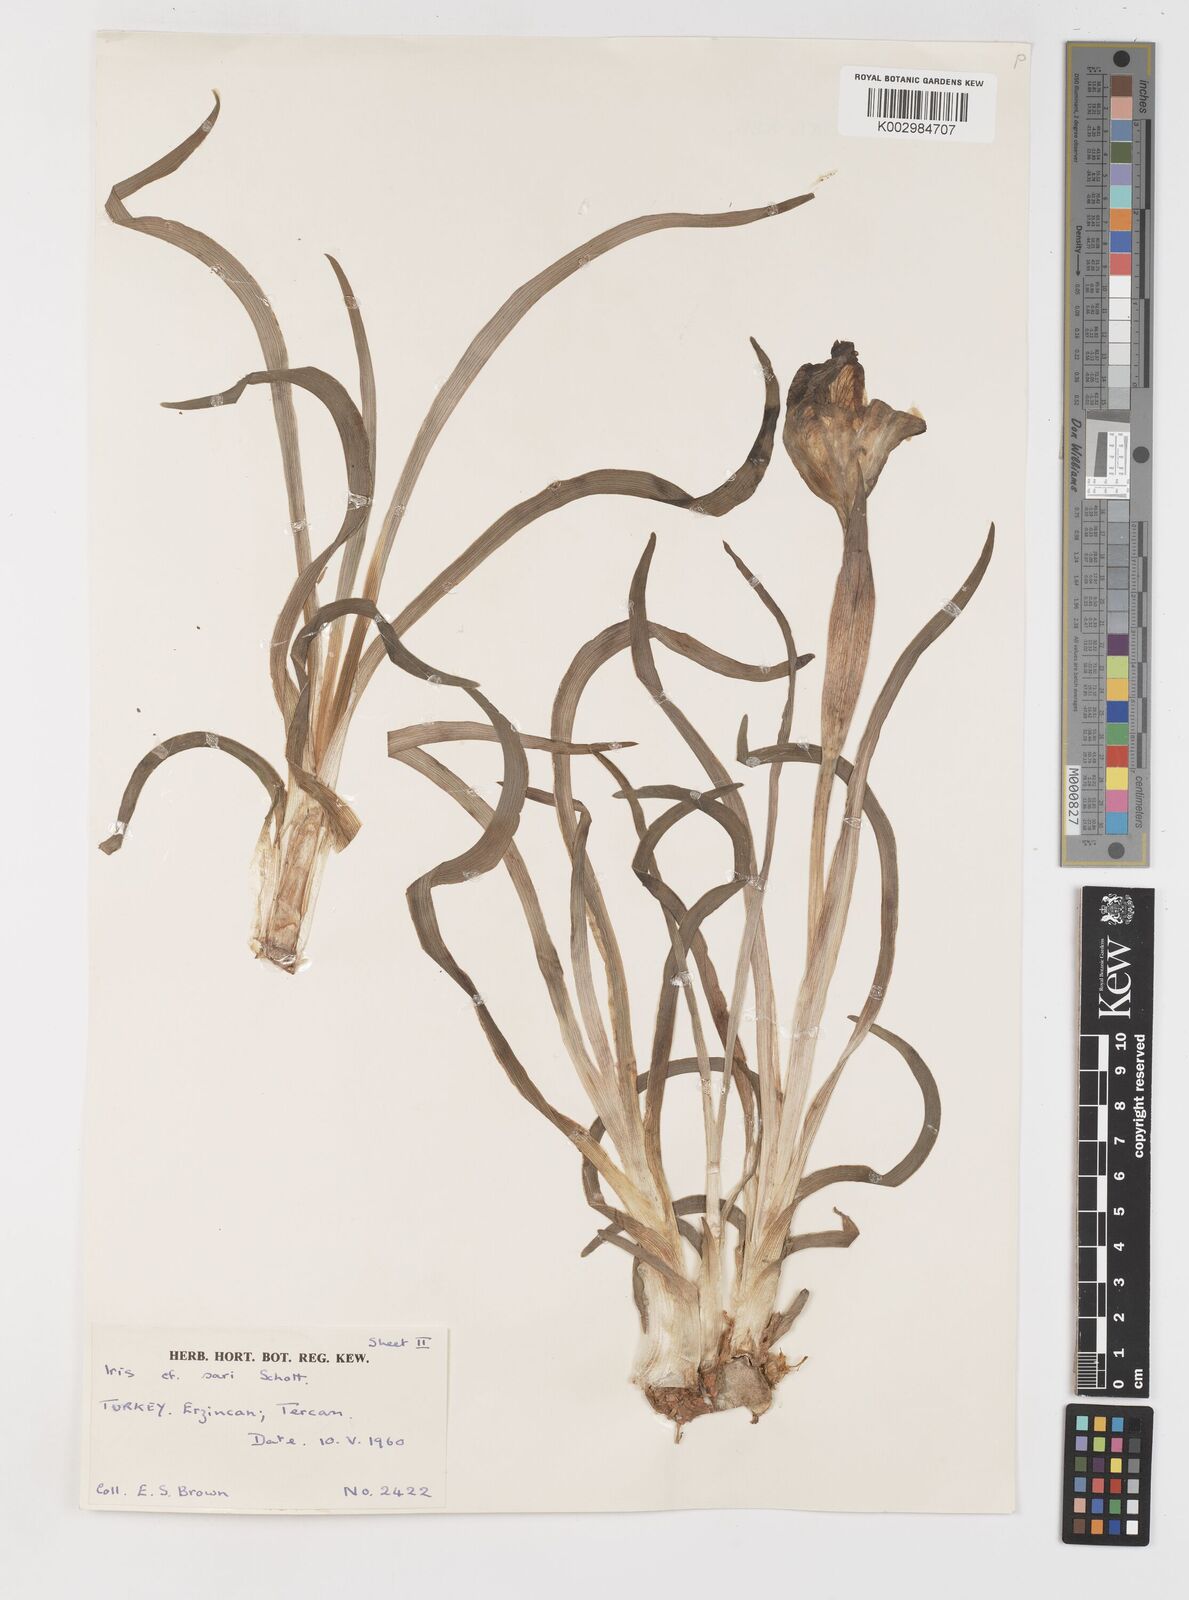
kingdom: Plantae
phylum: Tracheophyta
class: Liliopsida
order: Asparagales
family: Iridaceae
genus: Iris
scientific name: Iris sari
